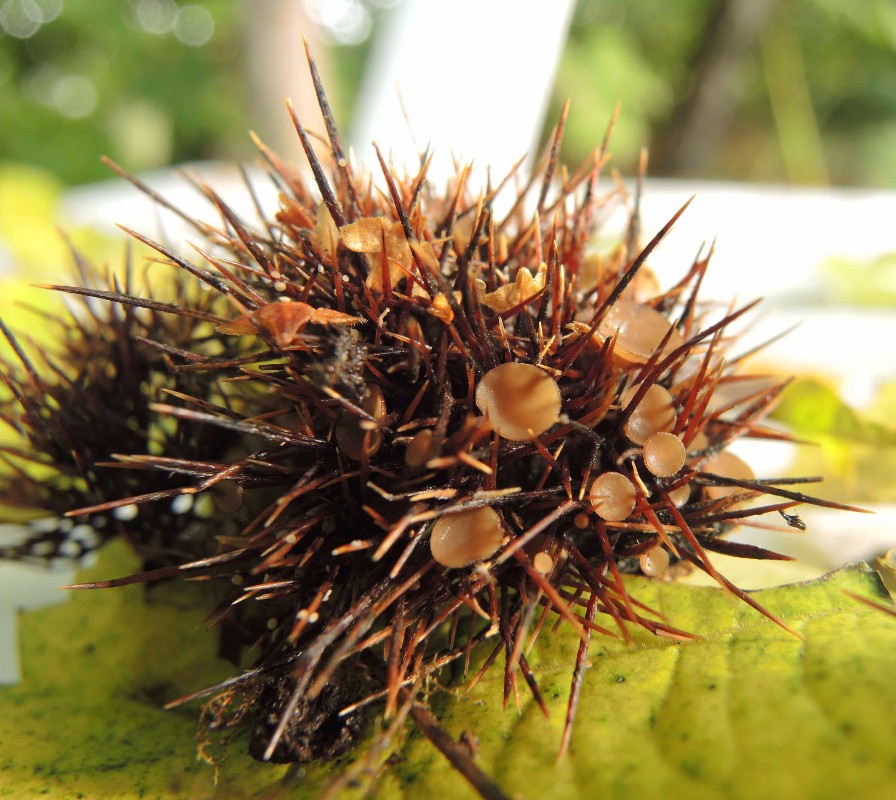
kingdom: Fungi
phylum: Ascomycota
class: Leotiomycetes
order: Helotiales
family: Sclerotiniaceae
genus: Ciboria
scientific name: Ciboria americana
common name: kastanie-knoldskive
